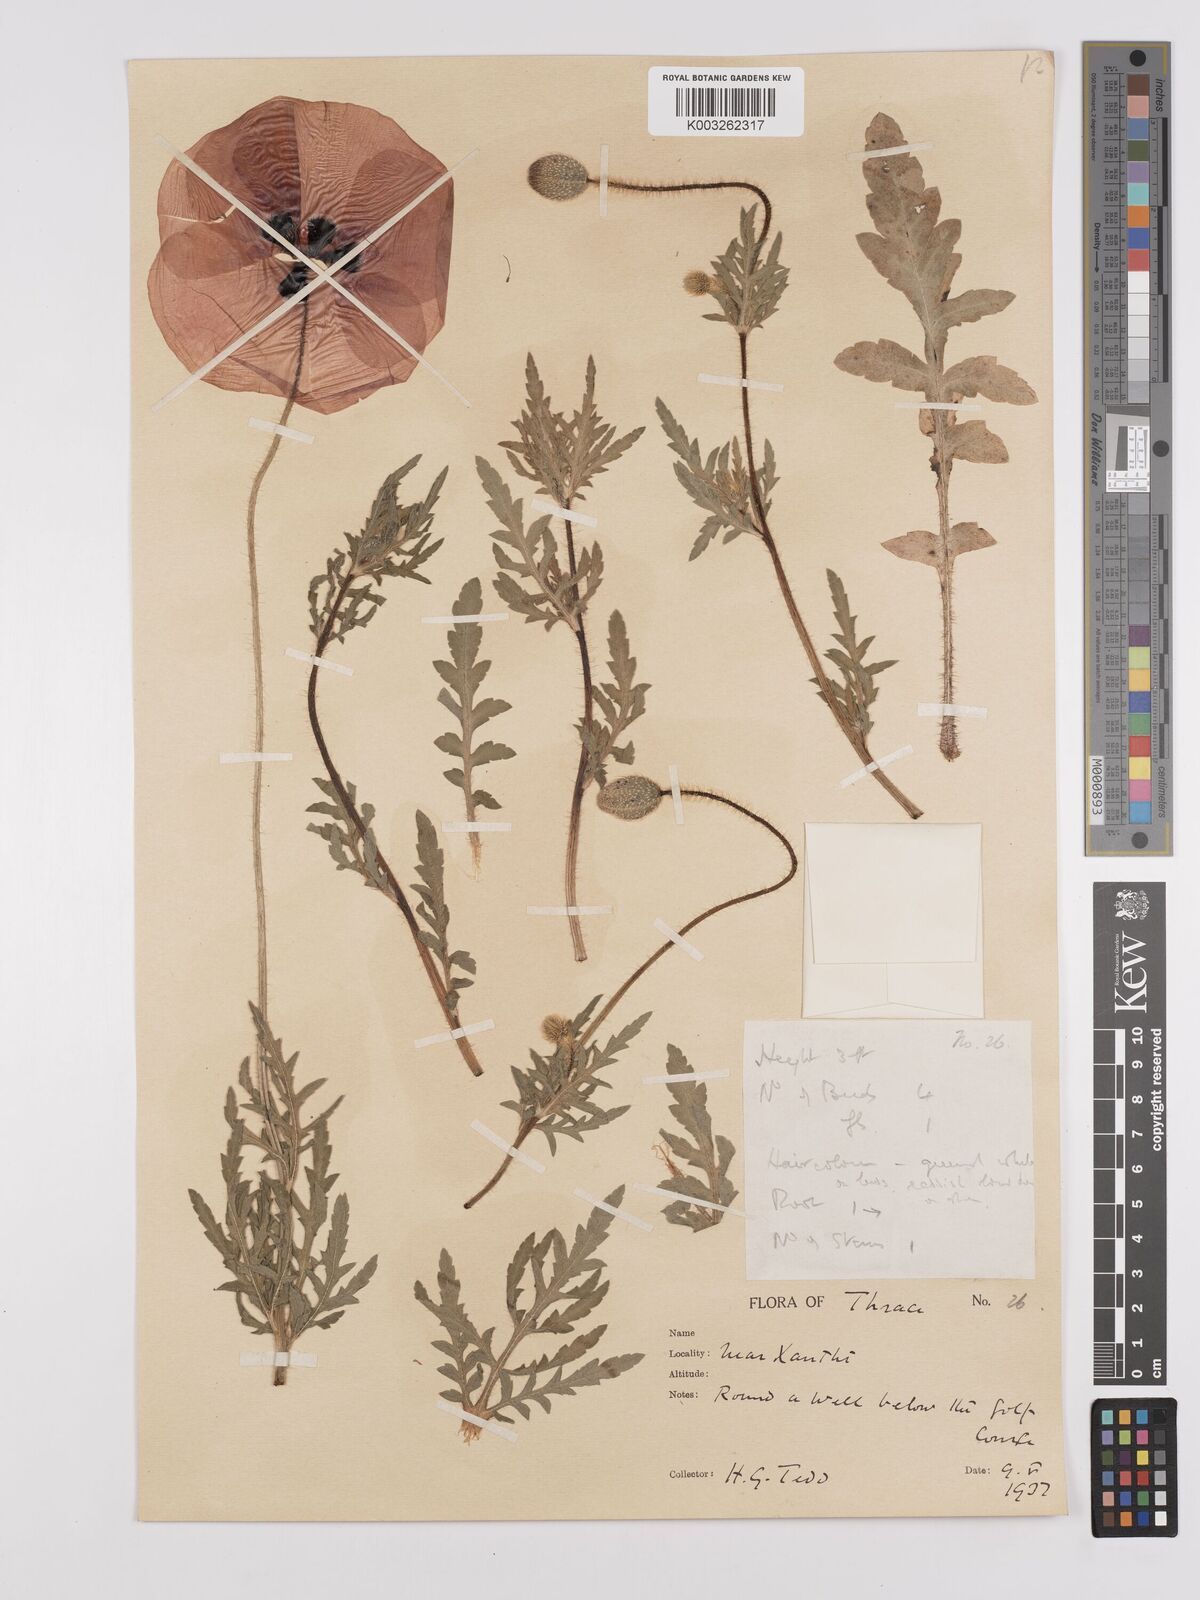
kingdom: Plantae
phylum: Tracheophyta
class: Magnoliopsida
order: Ranunculales
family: Papaveraceae
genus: Papaver
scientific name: Papaver rhoeas
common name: Corn poppy
